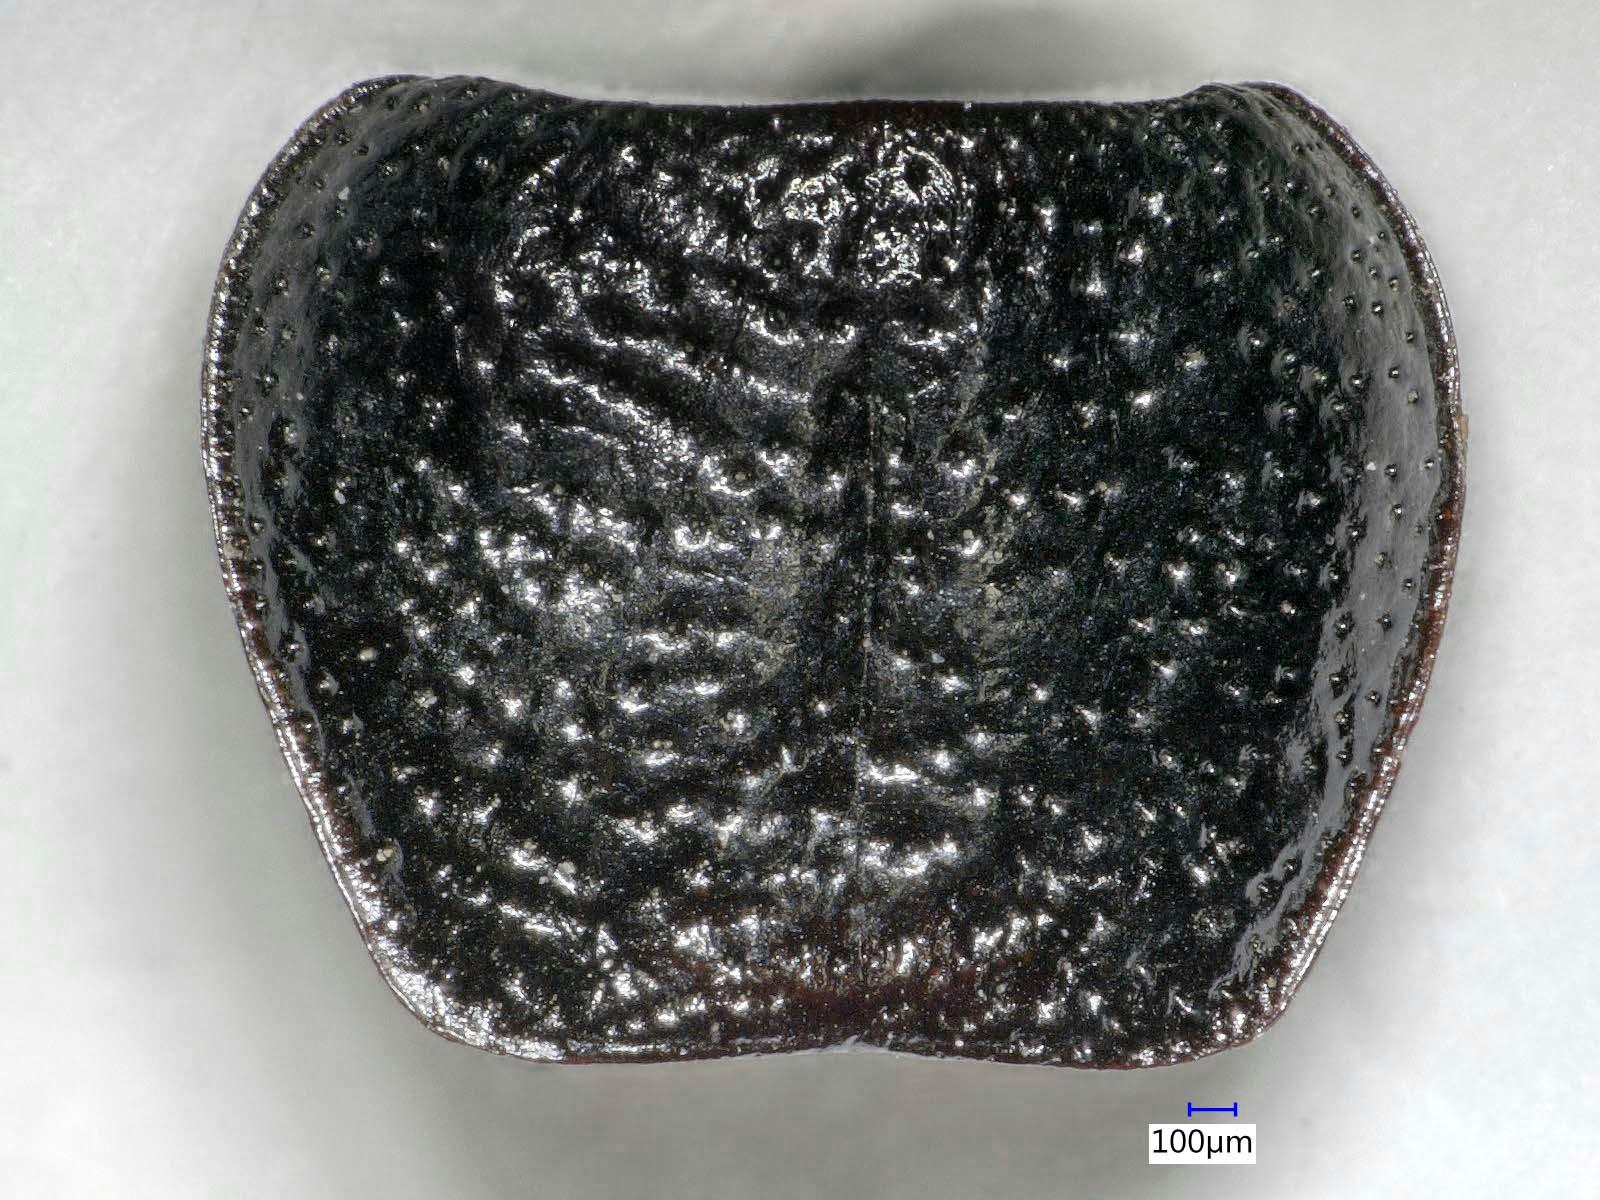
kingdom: Animalia
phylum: Arthropoda
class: Insecta
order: Coleoptera
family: Carabidae
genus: Dicheirus
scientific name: Dicheirus dilatatus
